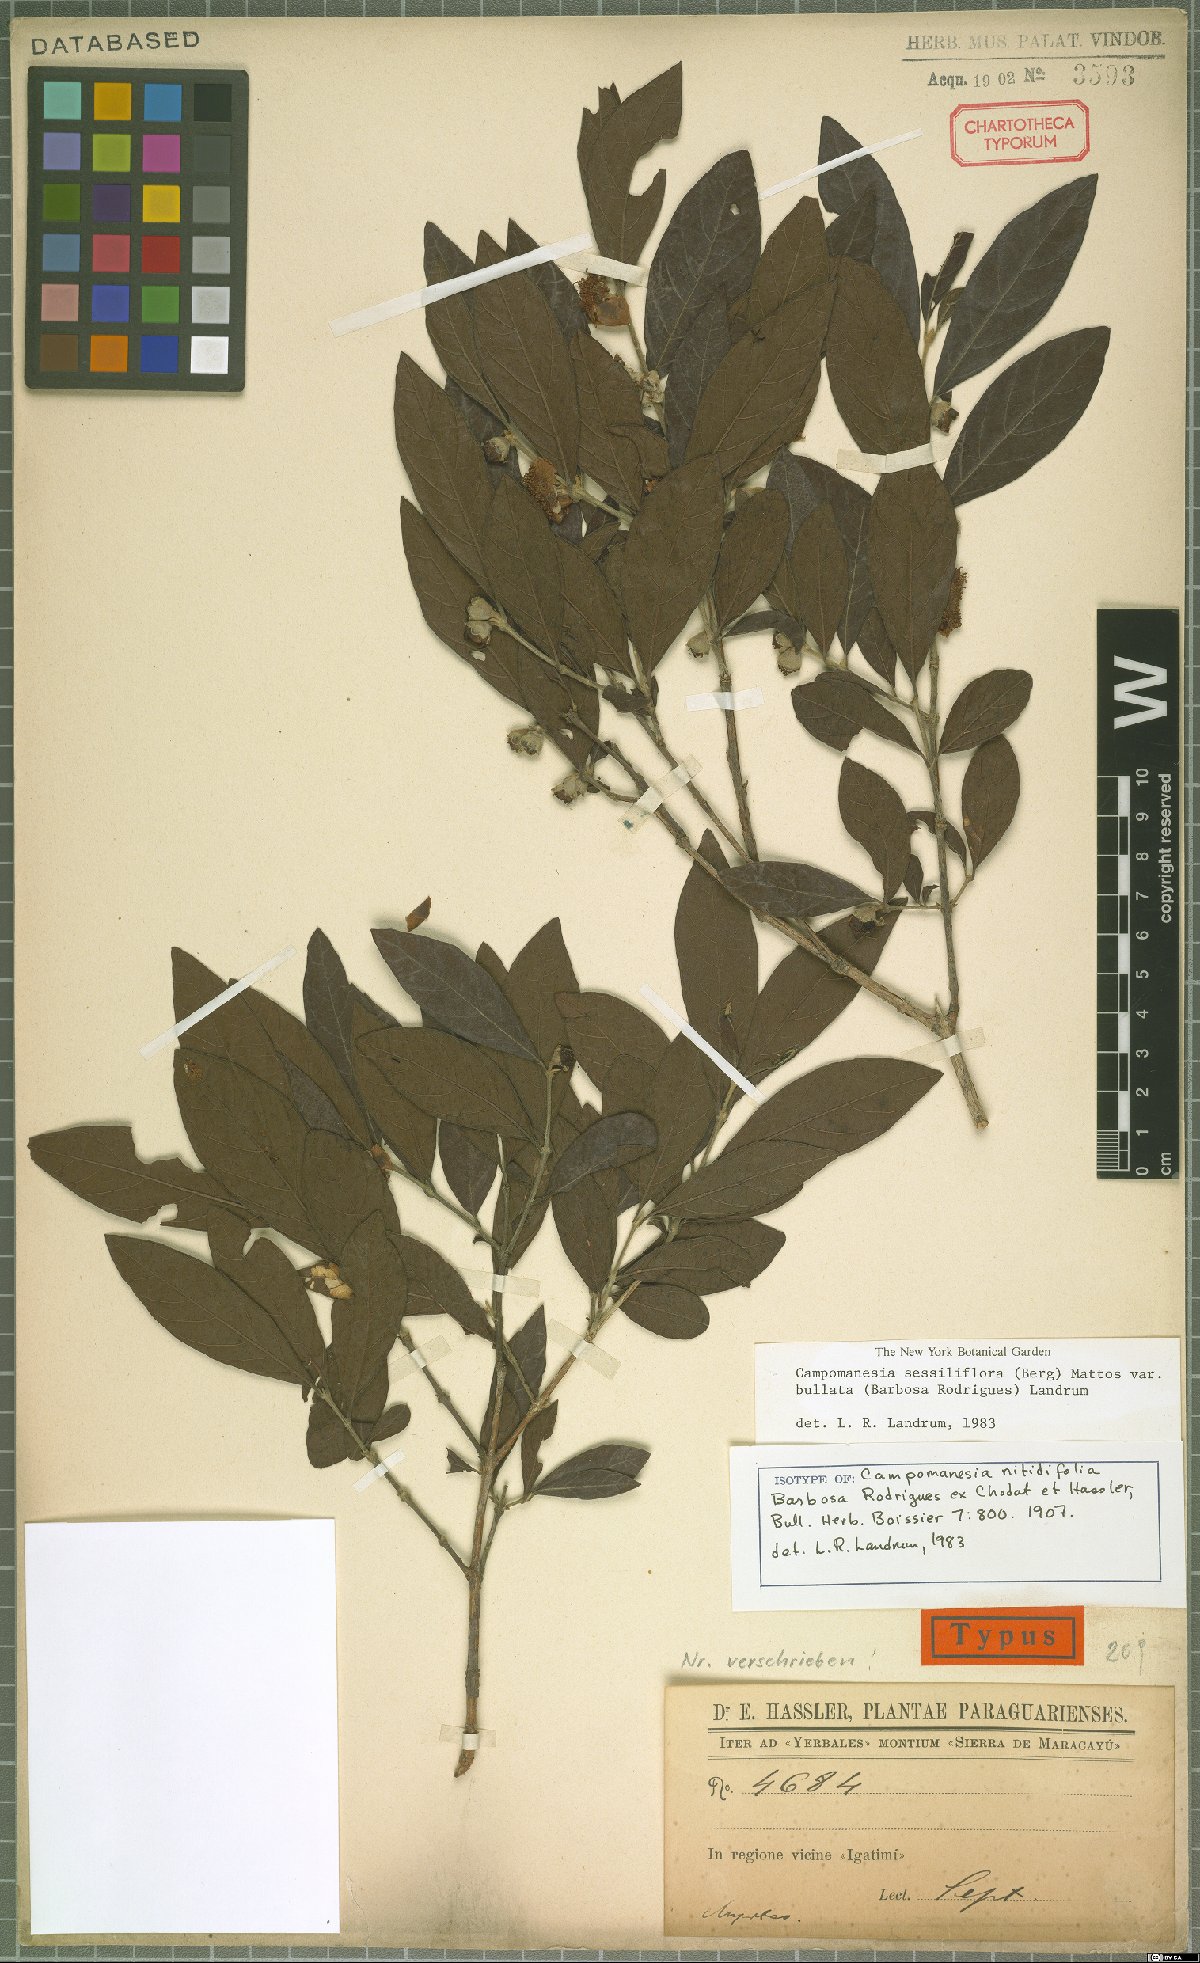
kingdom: Plantae
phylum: Tracheophyta
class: Magnoliopsida
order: Myrtales
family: Myrtaceae
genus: Campomanesia
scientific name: Campomanesia sessiliflora
